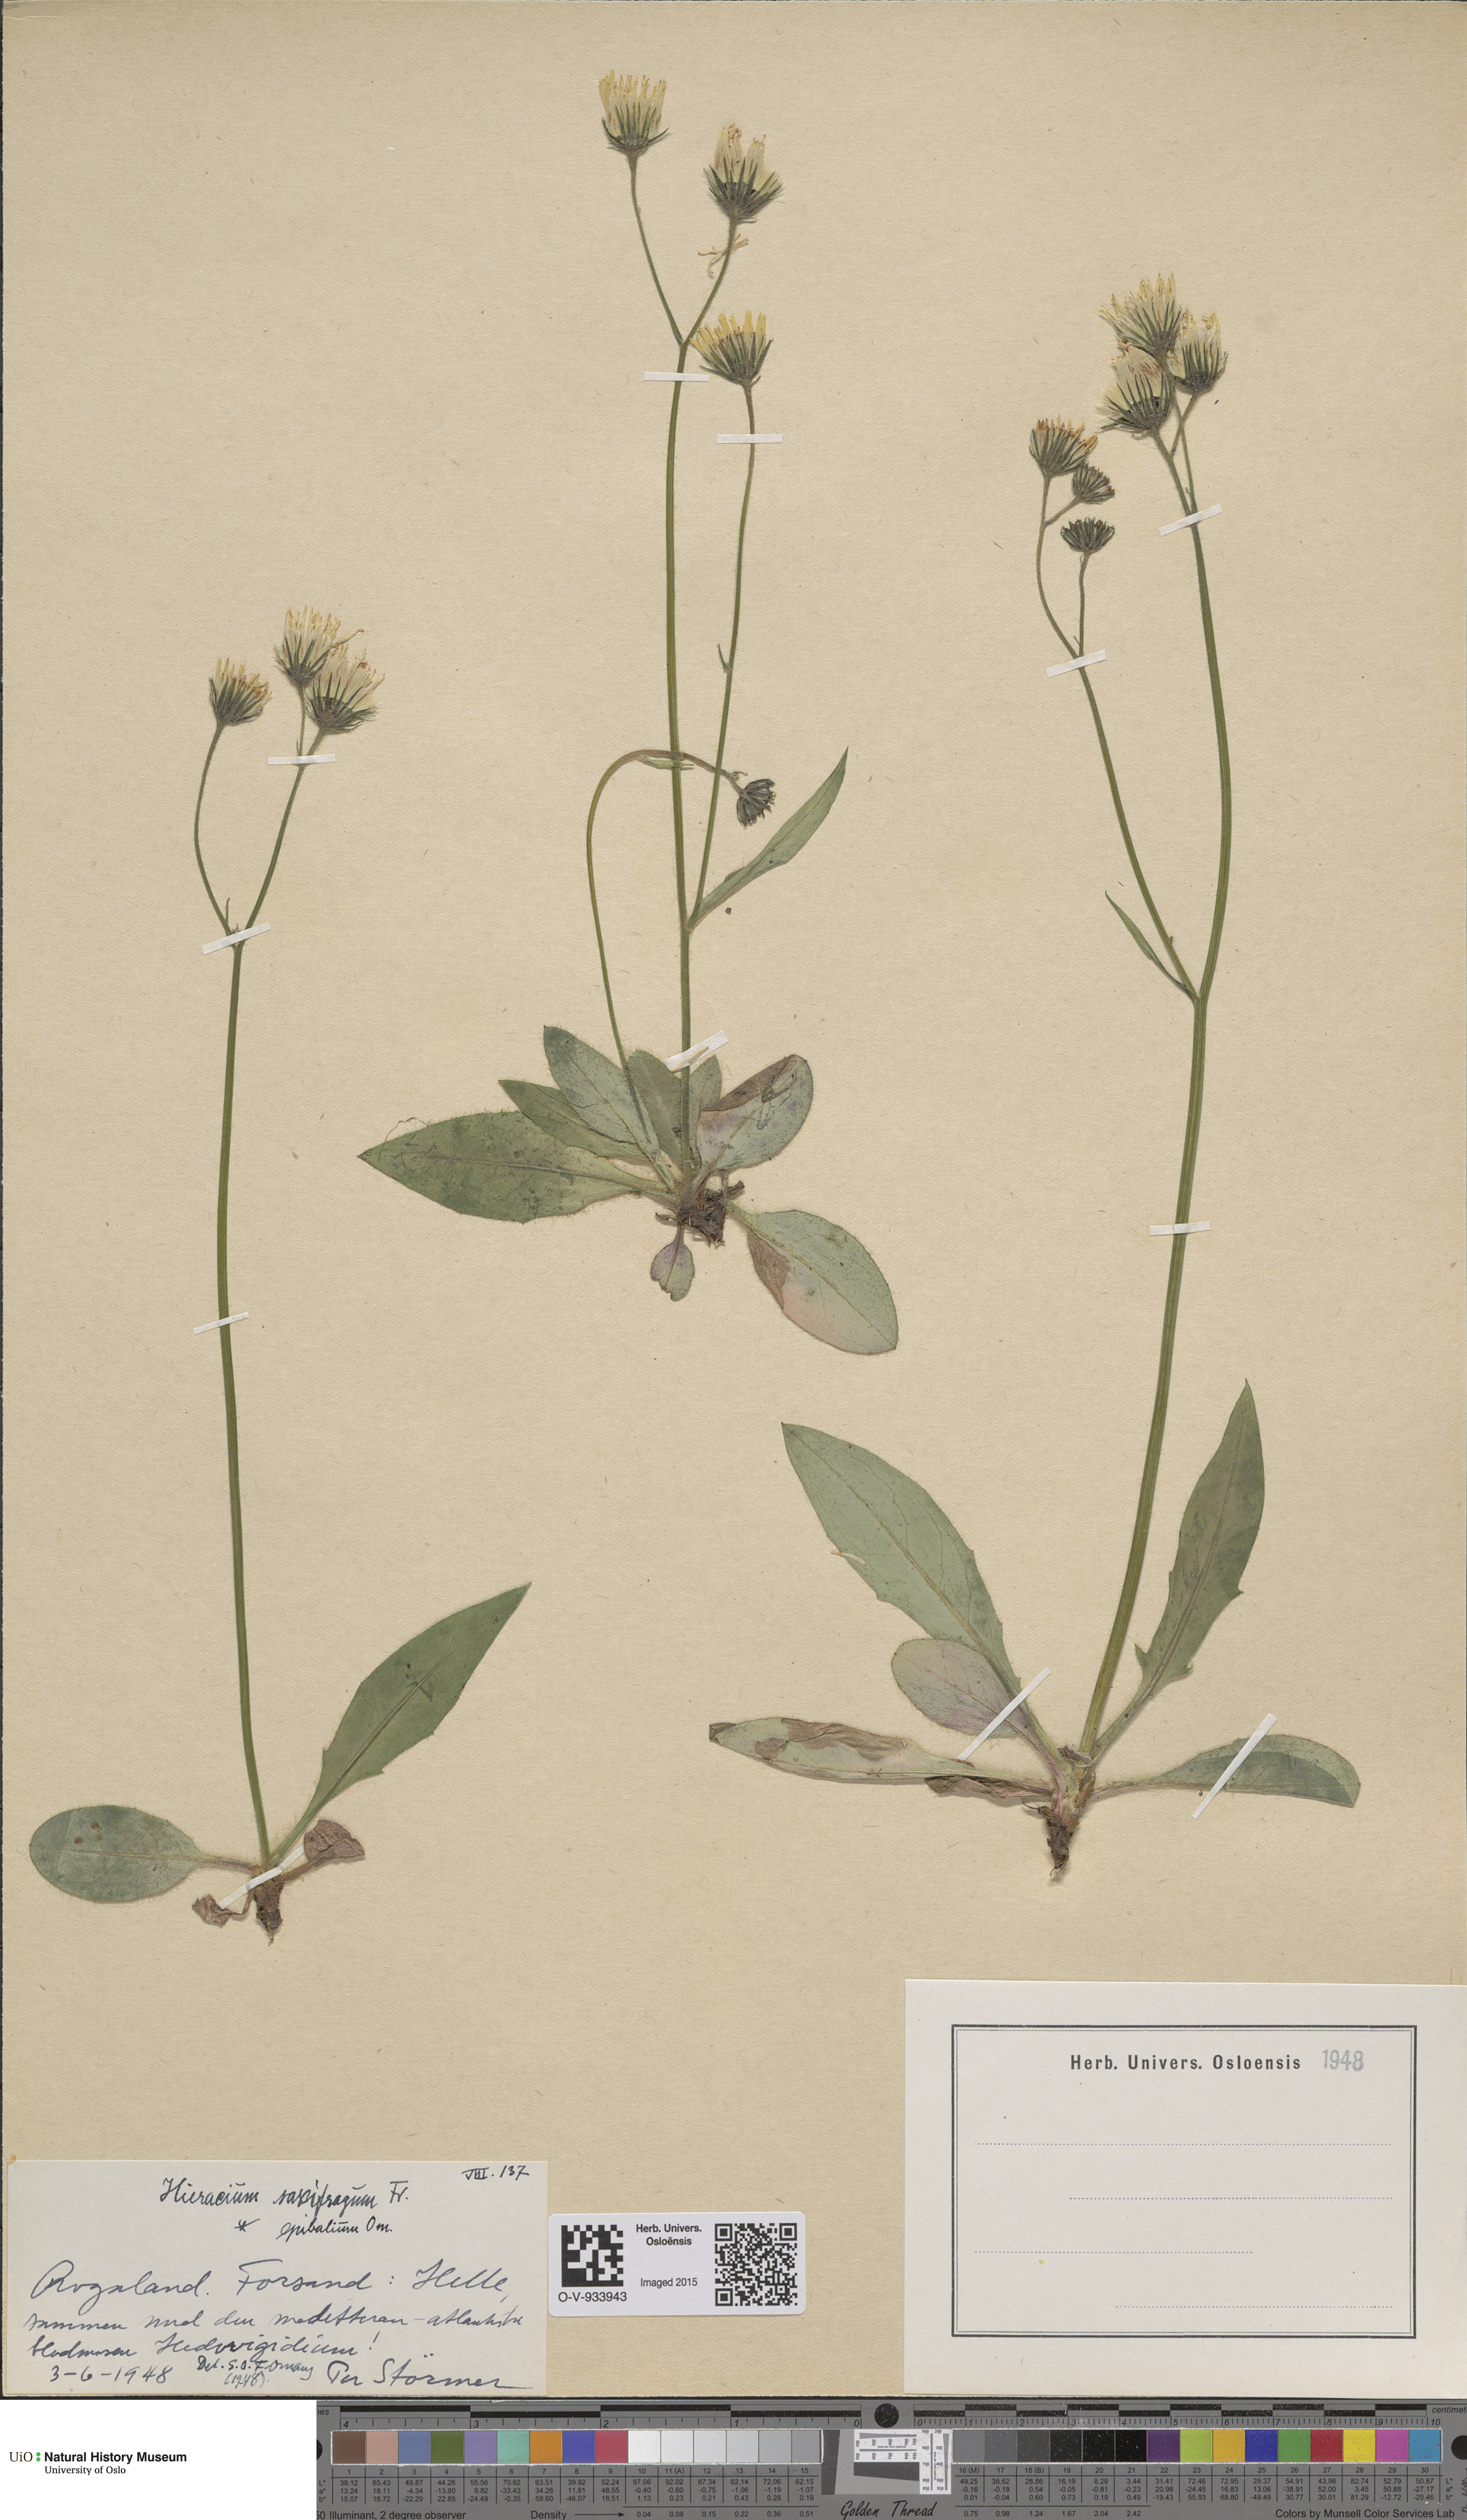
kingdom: Plantae
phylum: Tracheophyta
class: Magnoliopsida
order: Asterales
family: Asteraceae
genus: Hieracium
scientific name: Hieracium saxifragum
